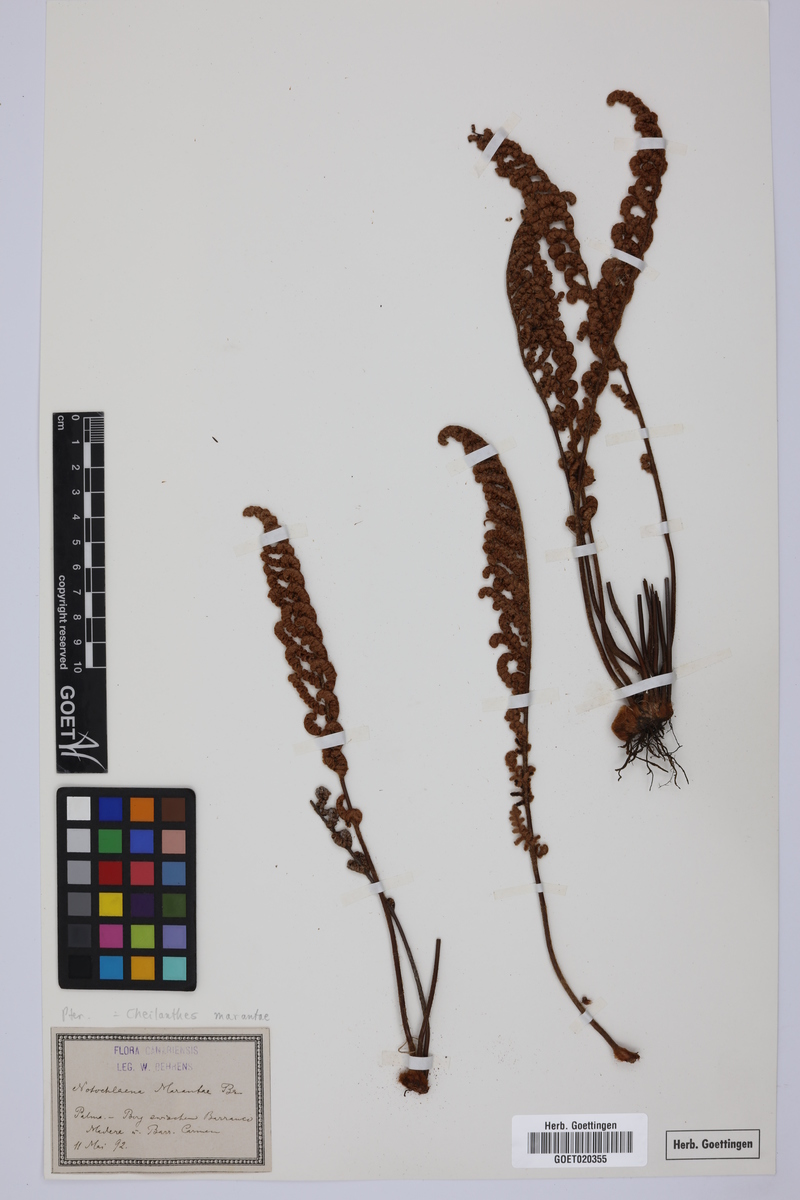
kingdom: Plantae
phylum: Tracheophyta
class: Polypodiopsida
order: Polypodiales
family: Pteridaceae
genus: Paragymnopteris
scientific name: Paragymnopteris marantae
